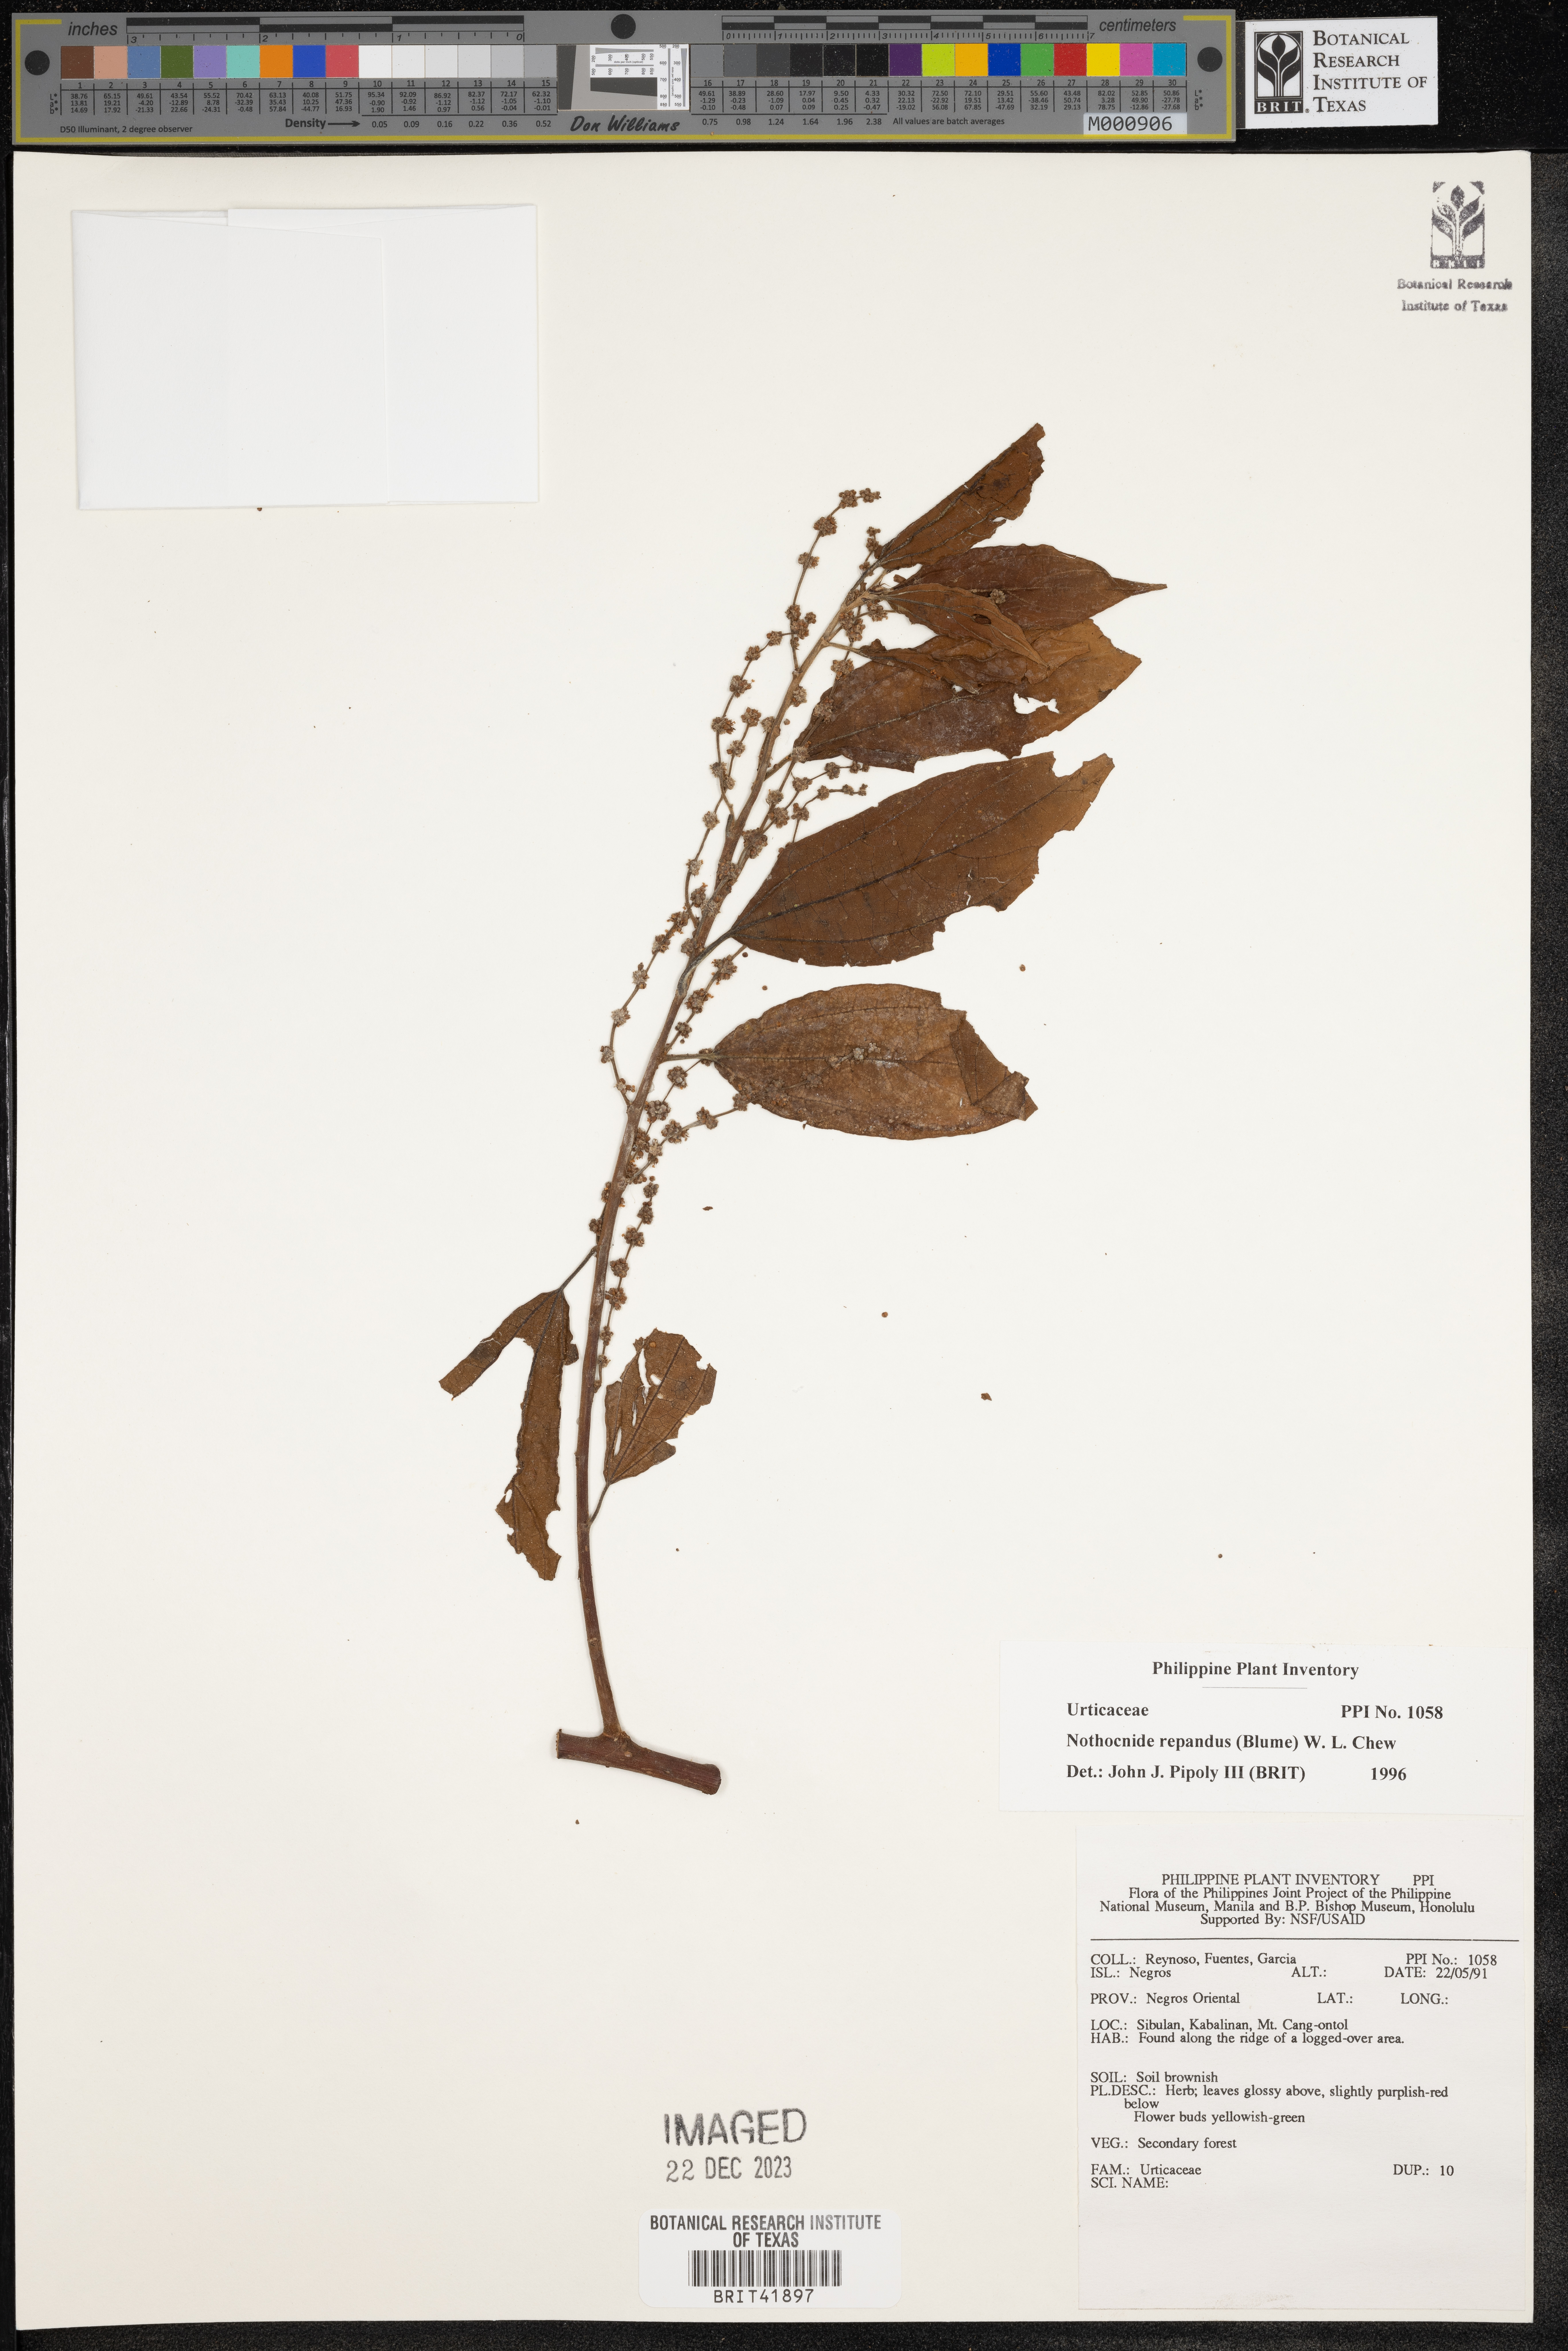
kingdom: Plantae
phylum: Tracheophyta
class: Magnoliopsida
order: Rosales
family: Urticaceae
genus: Nothocnide
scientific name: Nothocnide repanda
